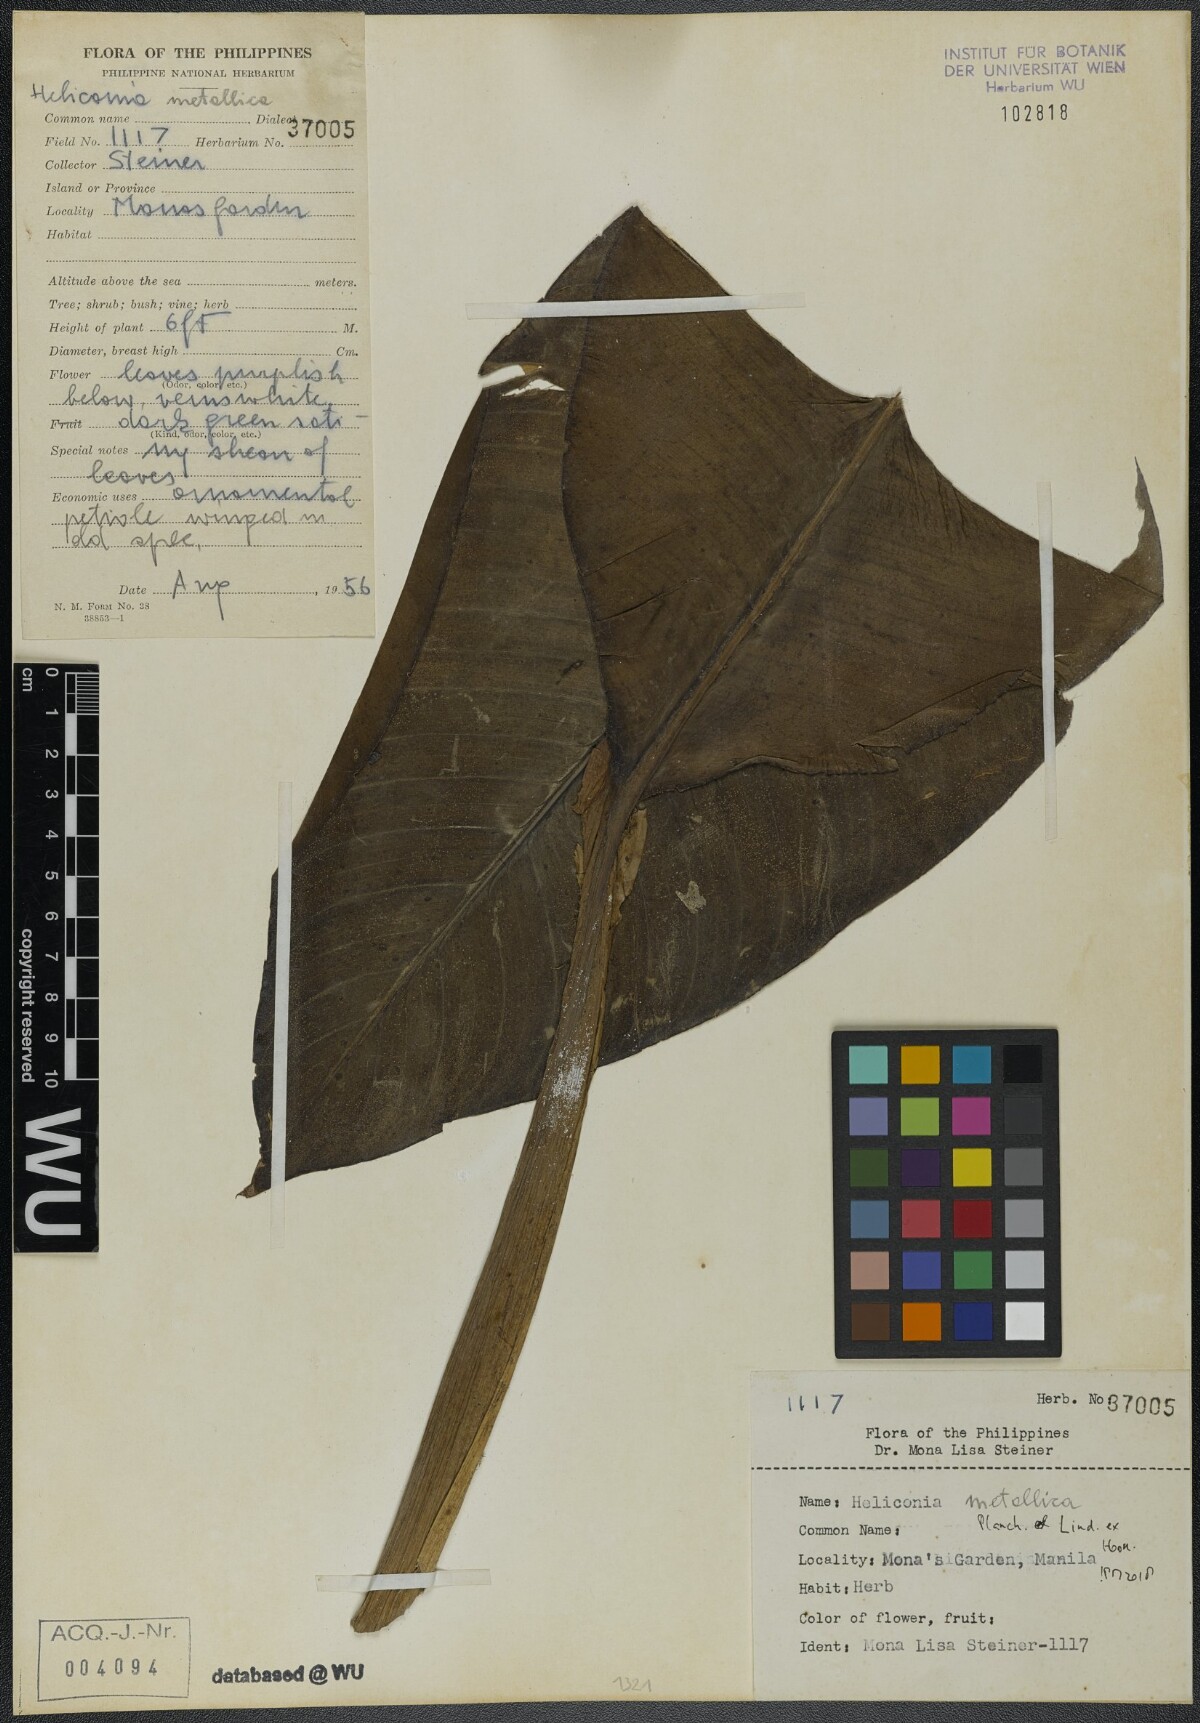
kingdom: Plantae
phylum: Tracheophyta
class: Liliopsida
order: Zingiberales
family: Heliconiaceae
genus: Heliconia
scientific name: Heliconia metallica
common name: Shining bird of paradise
